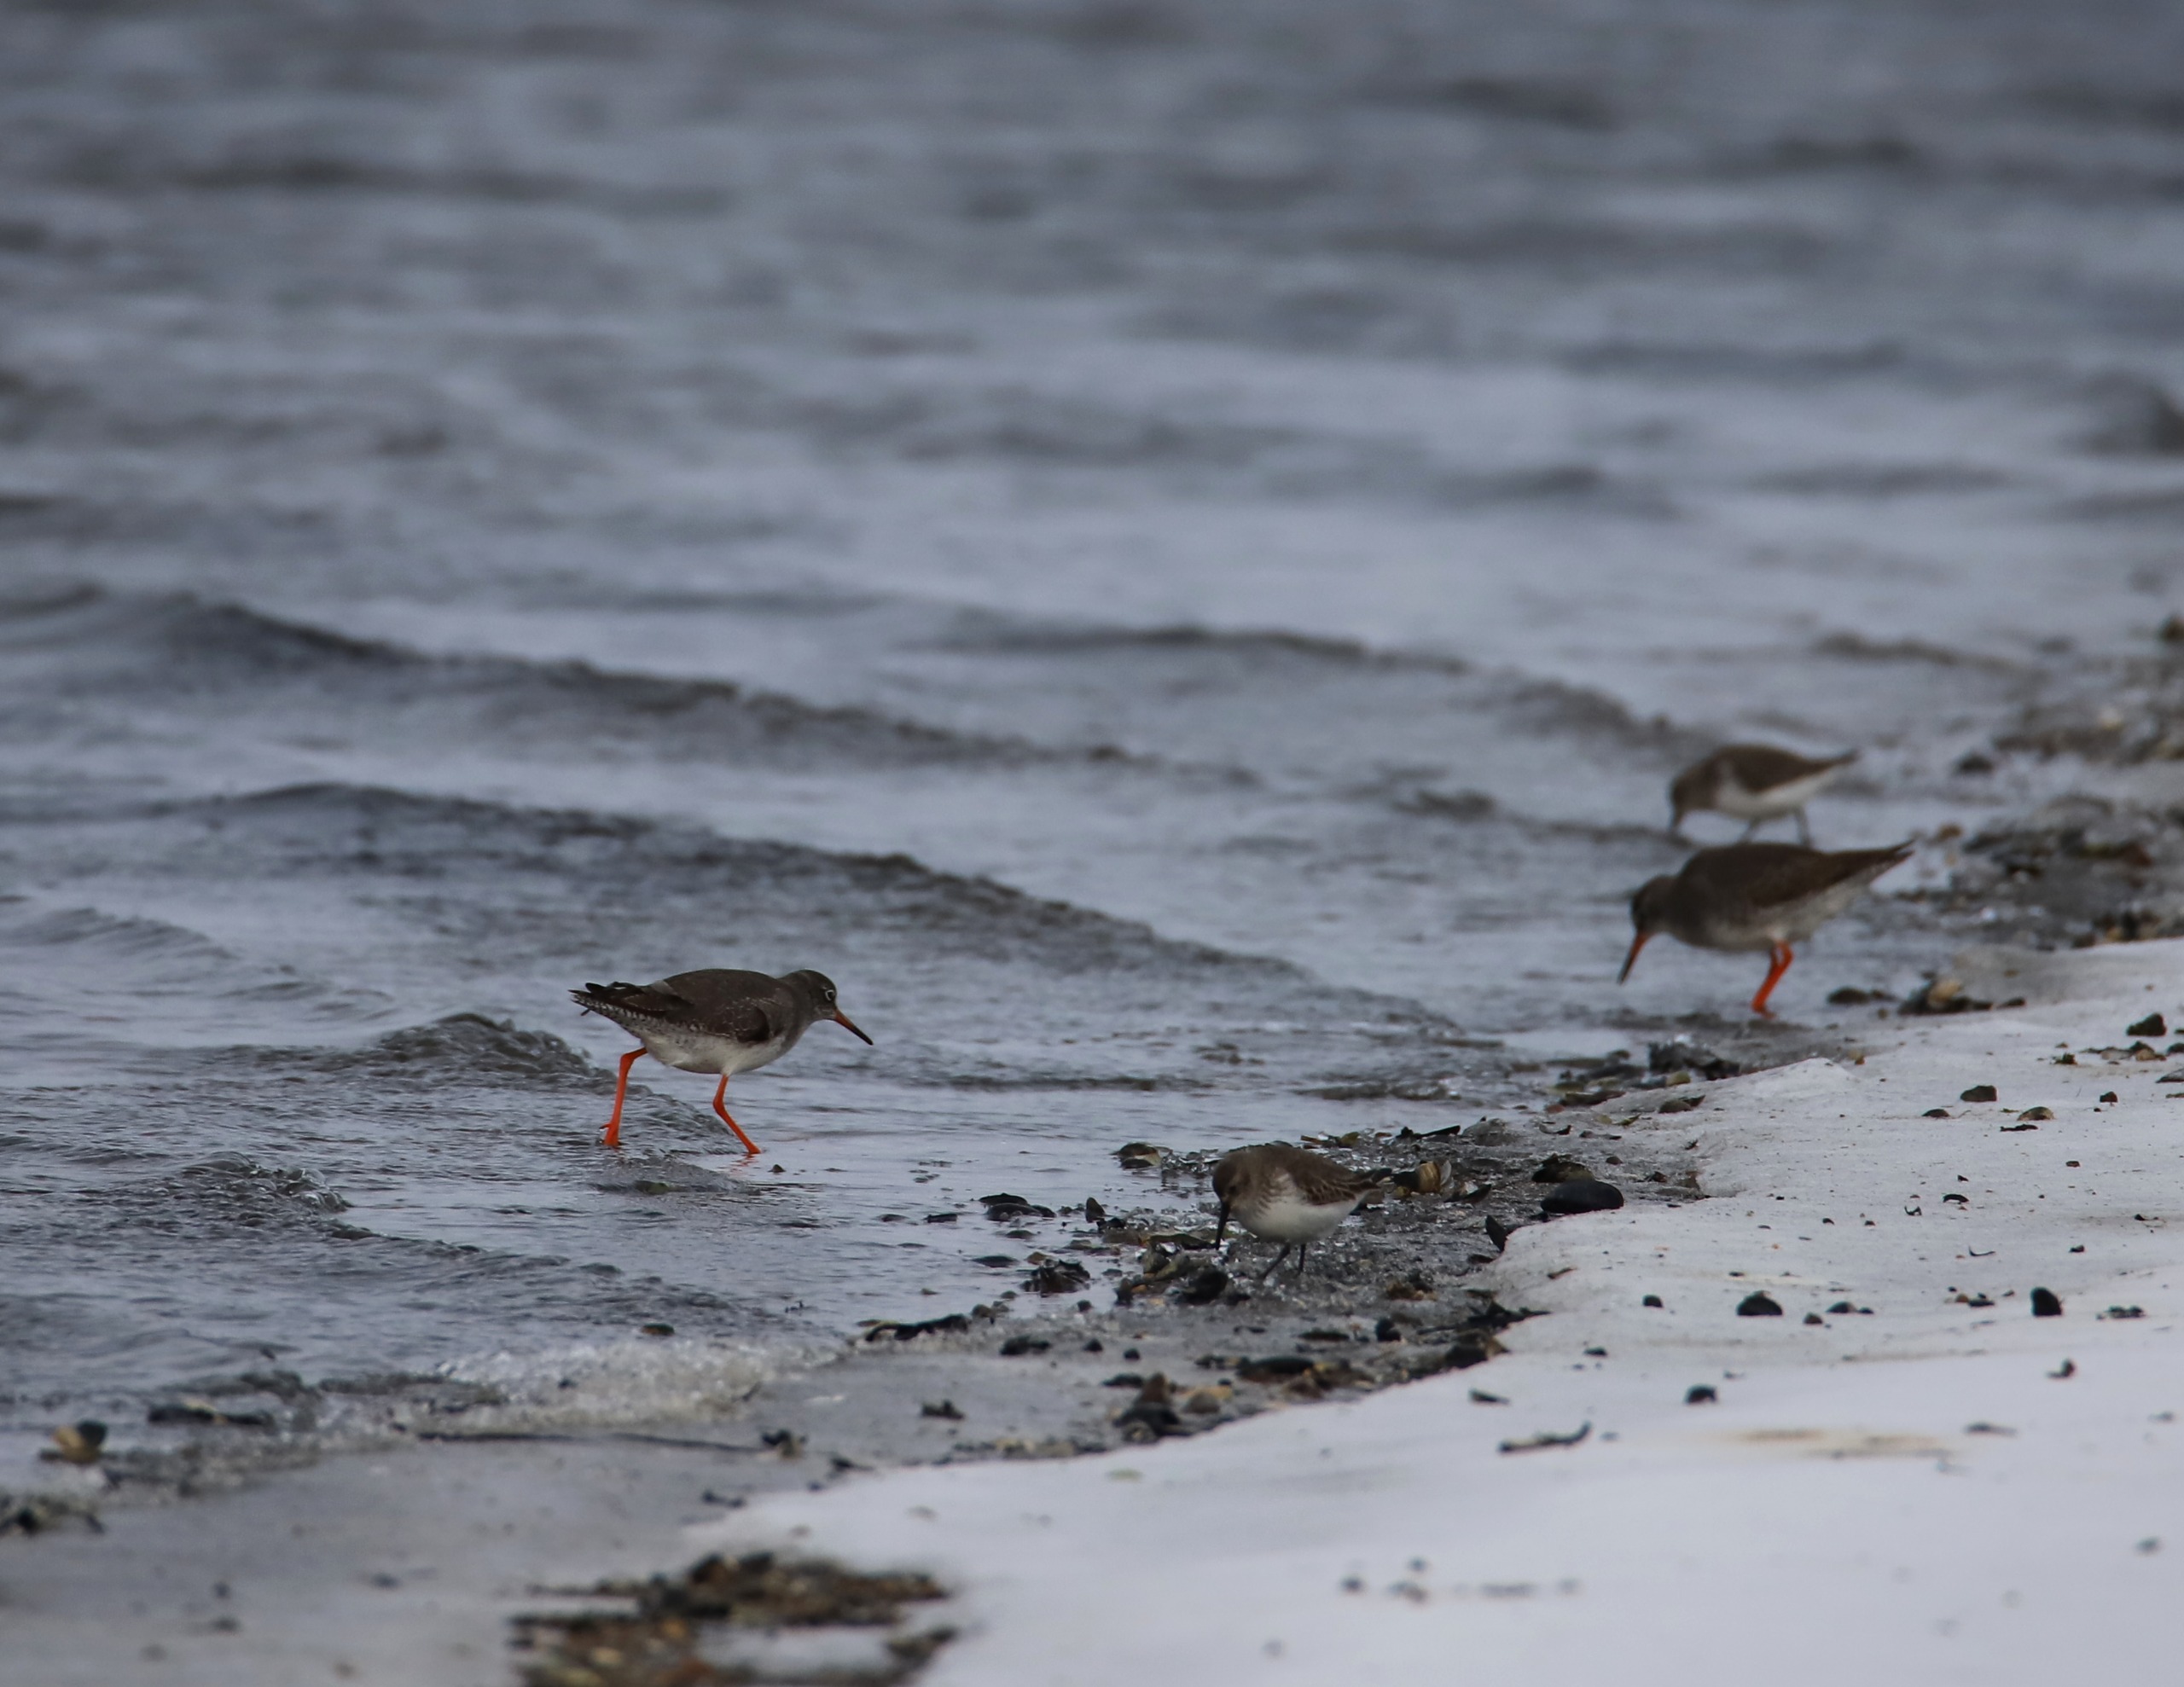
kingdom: Animalia
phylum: Chordata
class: Aves
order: Charadriiformes
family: Scolopacidae
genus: Tringa
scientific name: Tringa totanus
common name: Rødben
